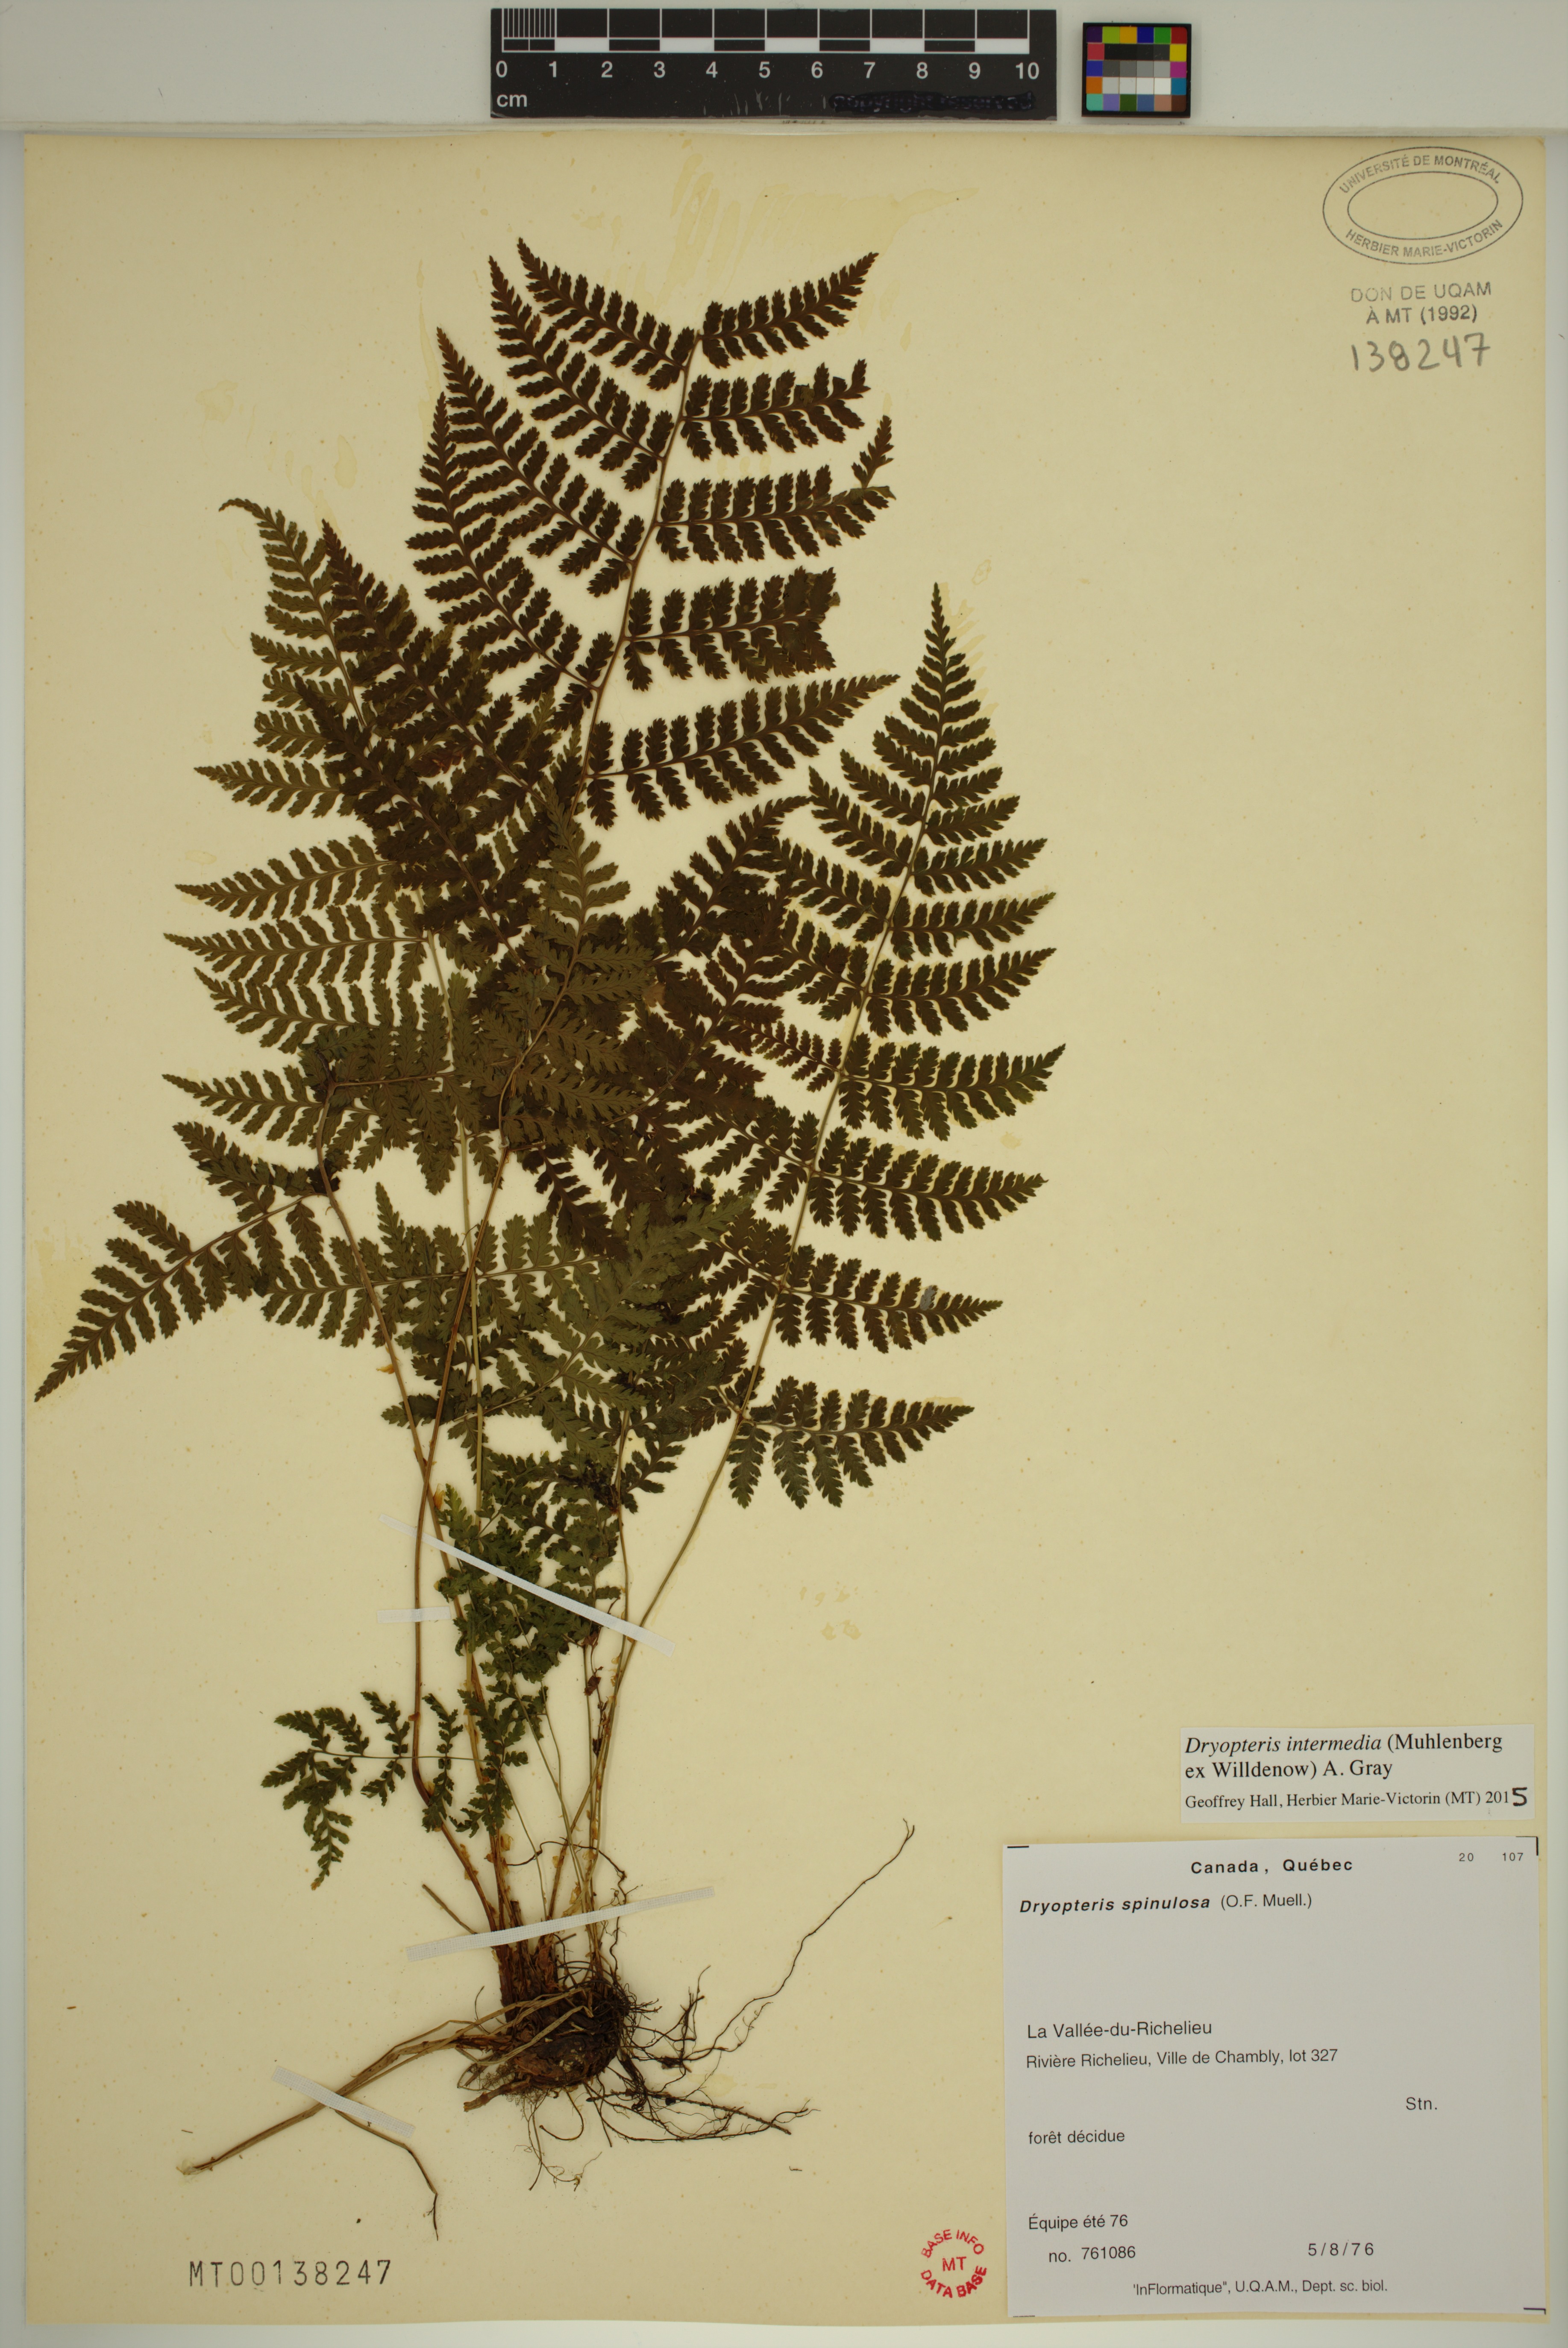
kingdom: Plantae
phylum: Tracheophyta
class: Polypodiopsida
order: Polypodiales
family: Dryopteridaceae
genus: Dryopteris
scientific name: Dryopteris intermedia
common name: Evergreen wood fern
